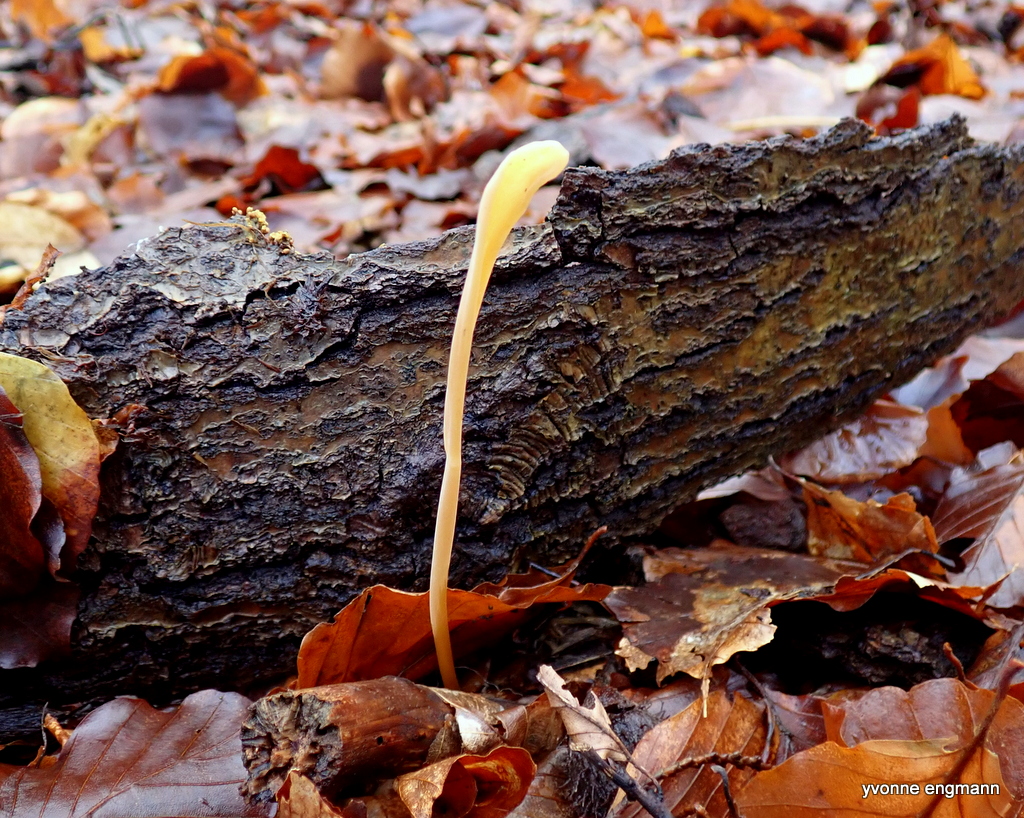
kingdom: Fungi
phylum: Basidiomycota
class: Agaricomycetes
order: Agaricales
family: Typhulaceae
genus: Typhula
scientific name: Typhula fistulosa
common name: pibet rørkølle
